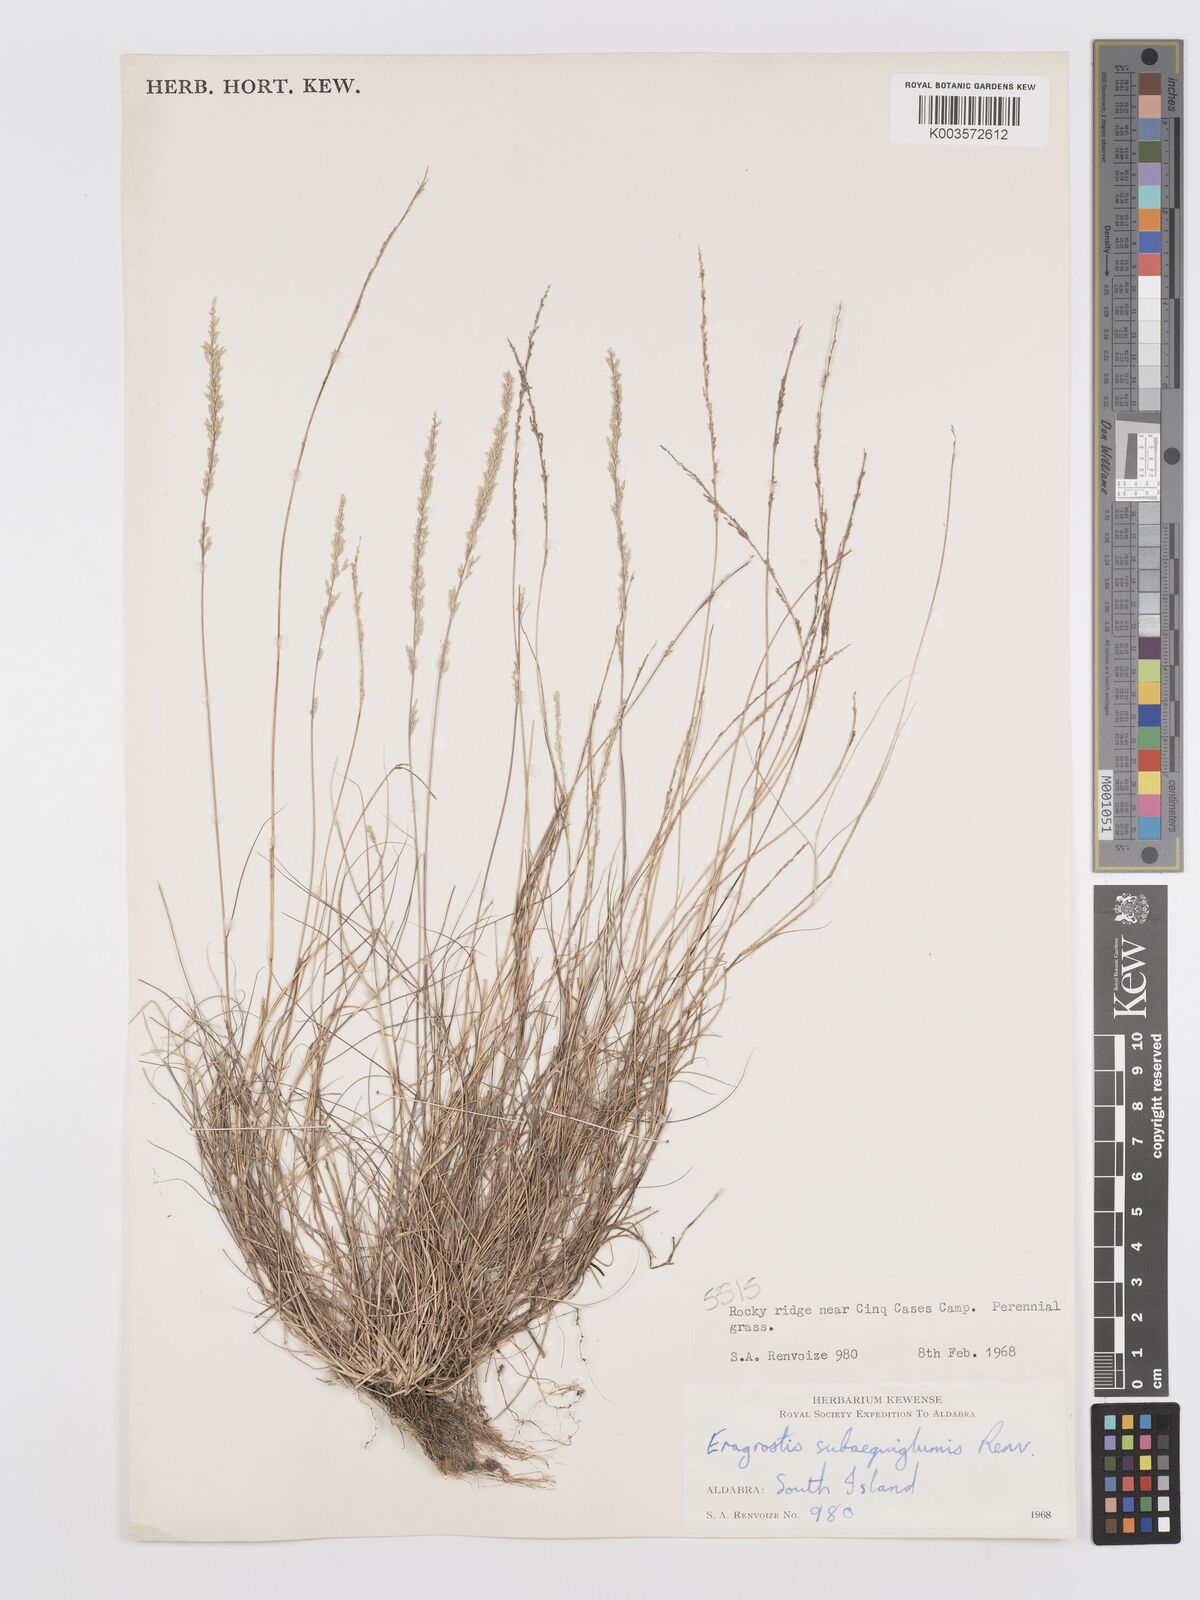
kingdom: Plantae
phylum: Tracheophyta
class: Liliopsida
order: Poales
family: Poaceae
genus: Eragrostis
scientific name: Eragrostis subaequiglumis
